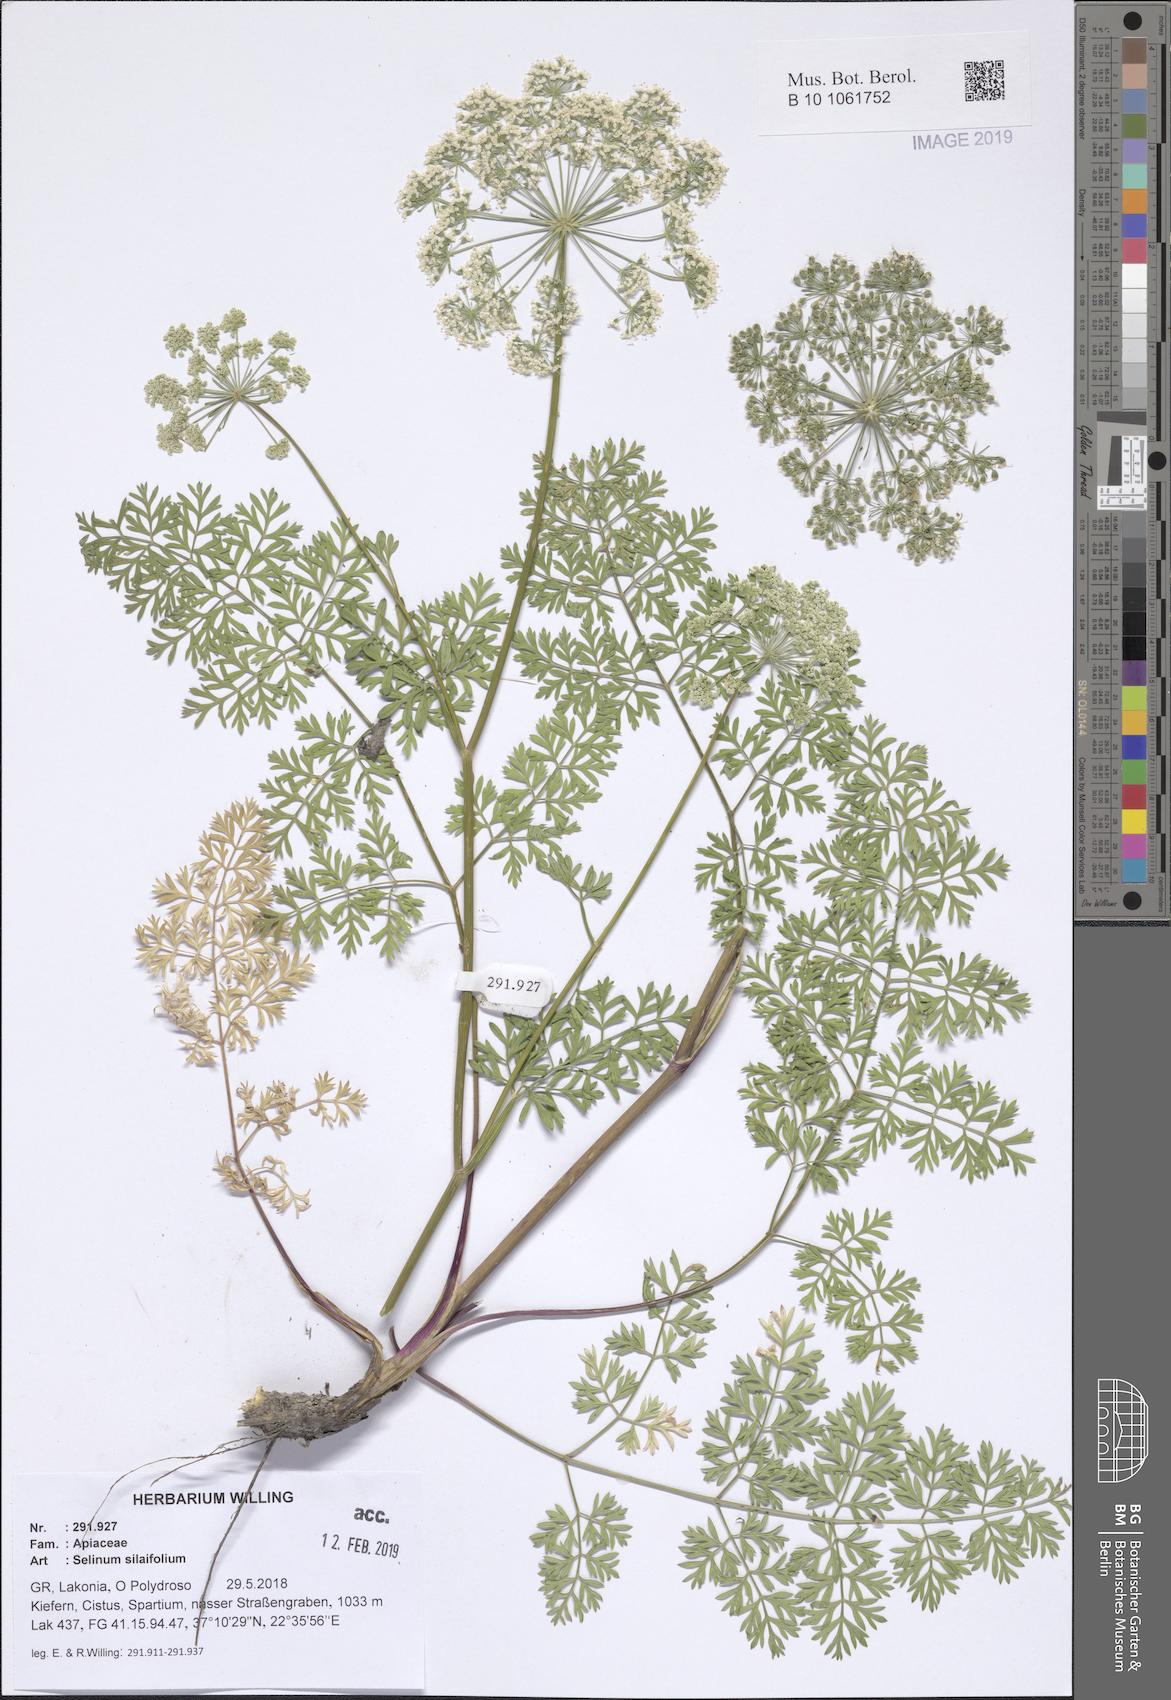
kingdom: Plantae
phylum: Tracheophyta
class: Magnoliopsida
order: Apiales
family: Apiaceae
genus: Katapsuxis
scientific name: Katapsuxis silaifolia
